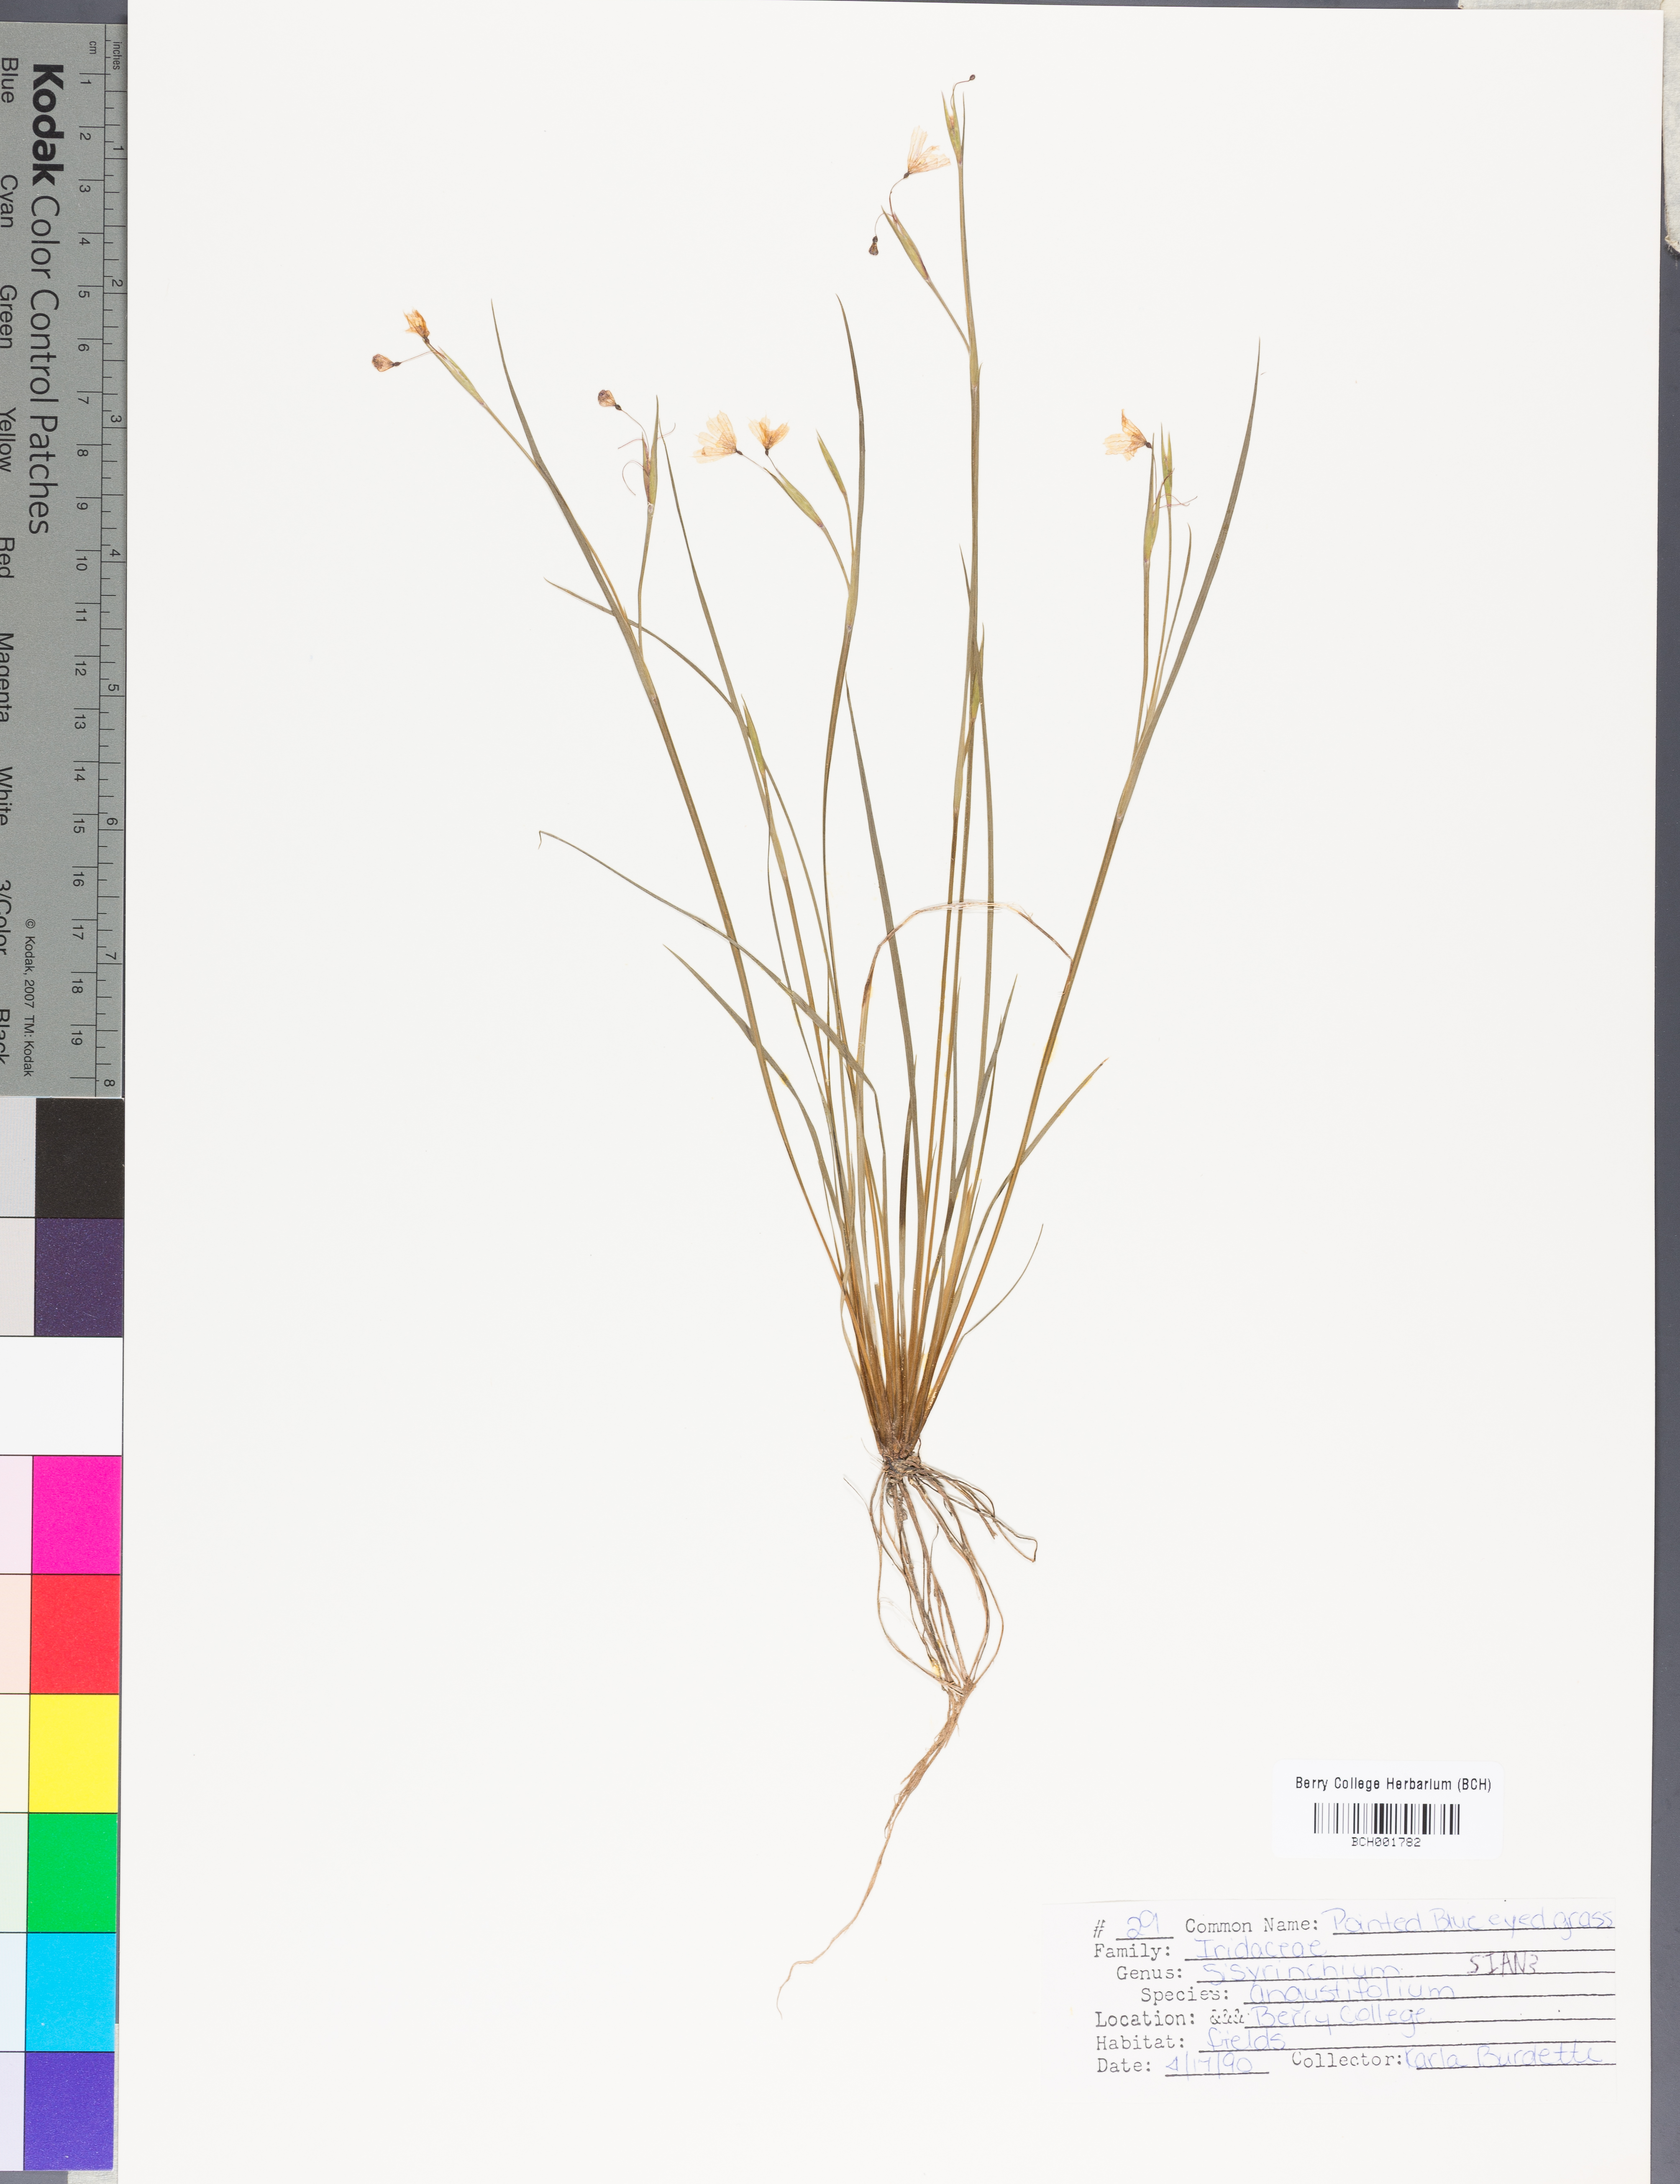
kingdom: Plantae
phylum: Tracheophyta
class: Liliopsida
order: Asparagales
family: Iridaceae
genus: Sisyrinchium
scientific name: Sisyrinchium angustifolium
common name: Narrow-leaf blue-eyed-grass
